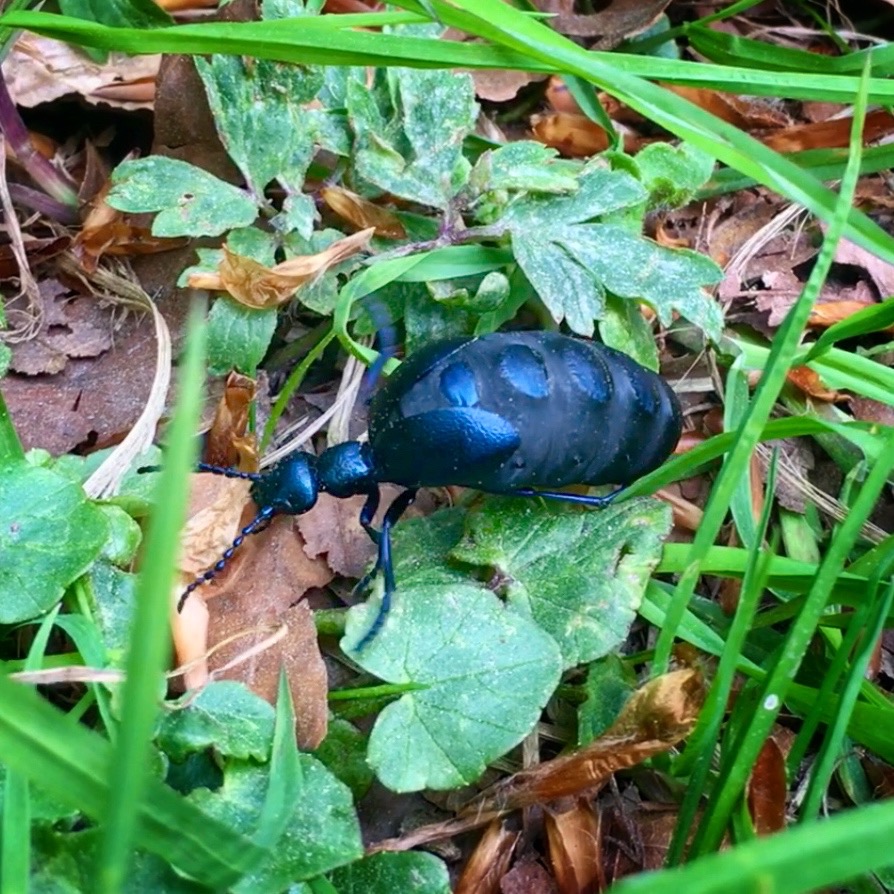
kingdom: Animalia
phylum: Arthropoda
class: Insecta
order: Coleoptera
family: Meloidae
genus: Meloe
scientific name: Meloe violaceus
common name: Blå oliebille
